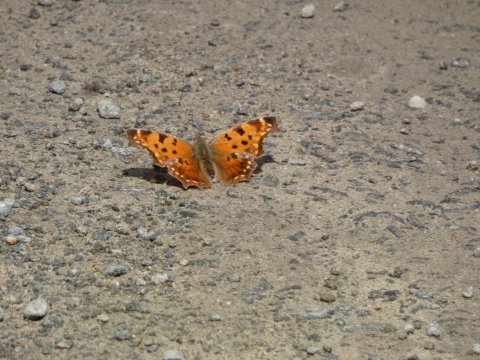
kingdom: Animalia
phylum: Arthropoda
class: Insecta
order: Lepidoptera
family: Nymphalidae
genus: Polygonia
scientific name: Polygonia comma
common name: Eastern Comma
